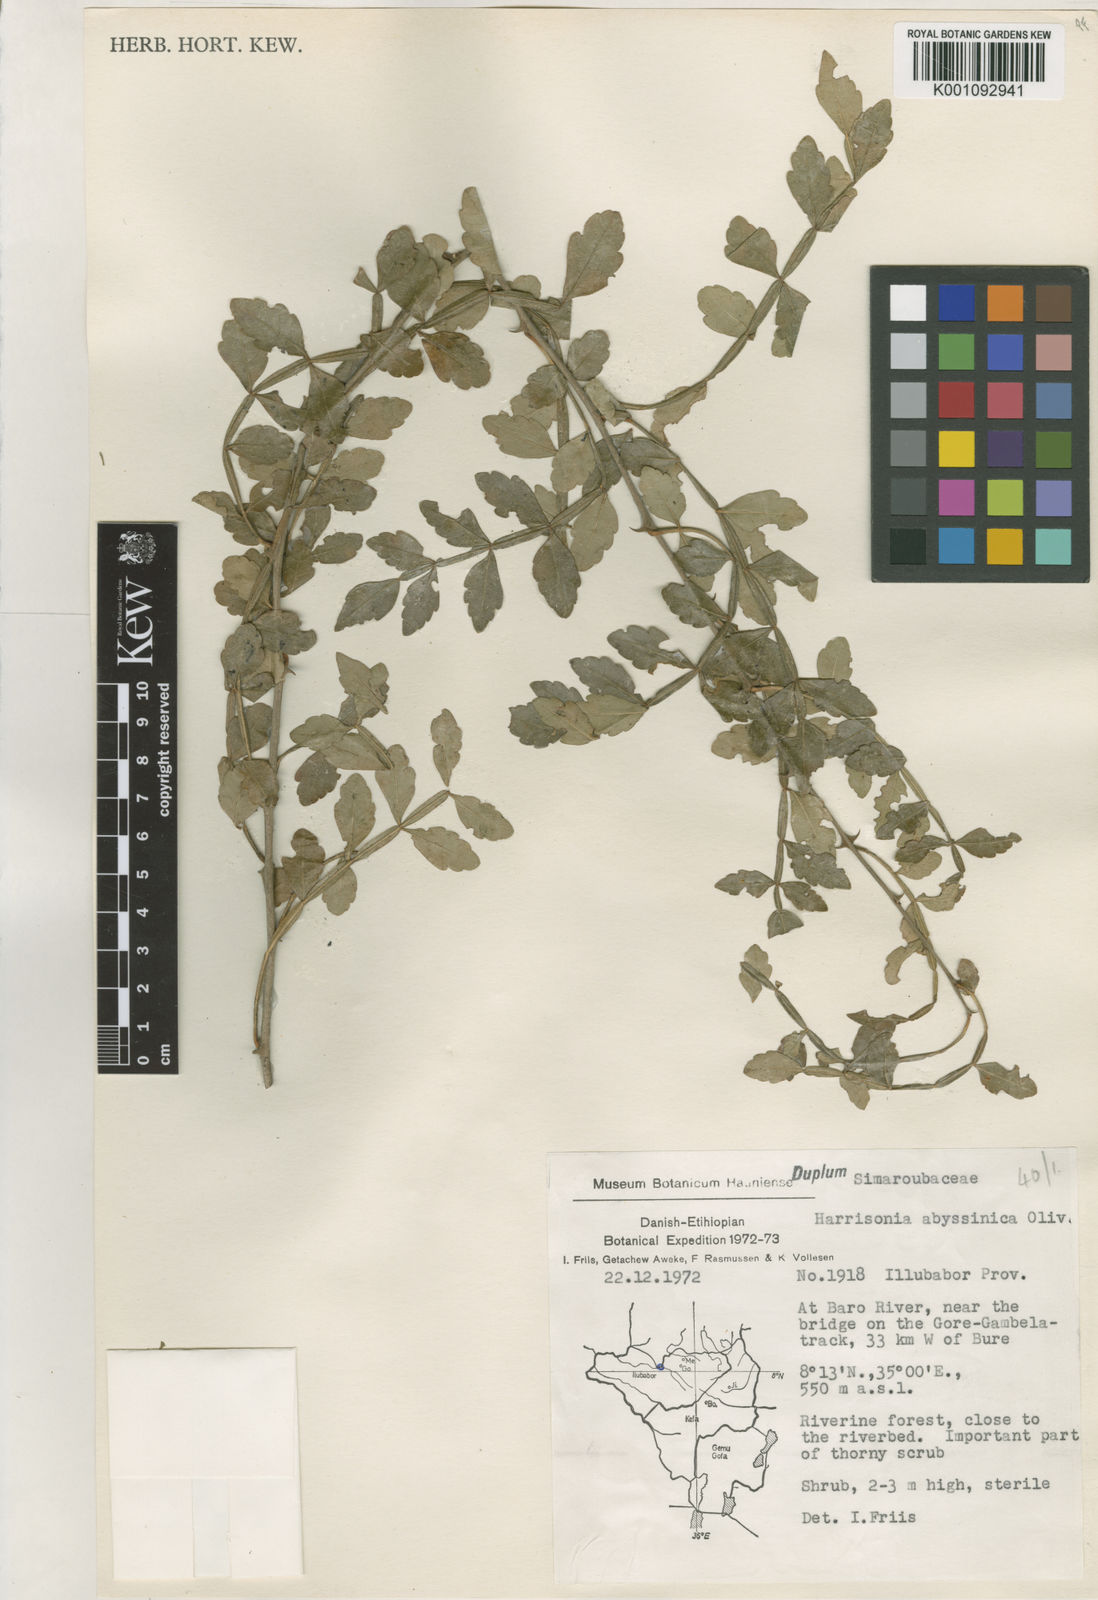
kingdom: Plantae
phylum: Tracheophyta
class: Magnoliopsida
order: Sapindales
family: Rutaceae
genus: Harrisonia
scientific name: Harrisonia abyssinica
